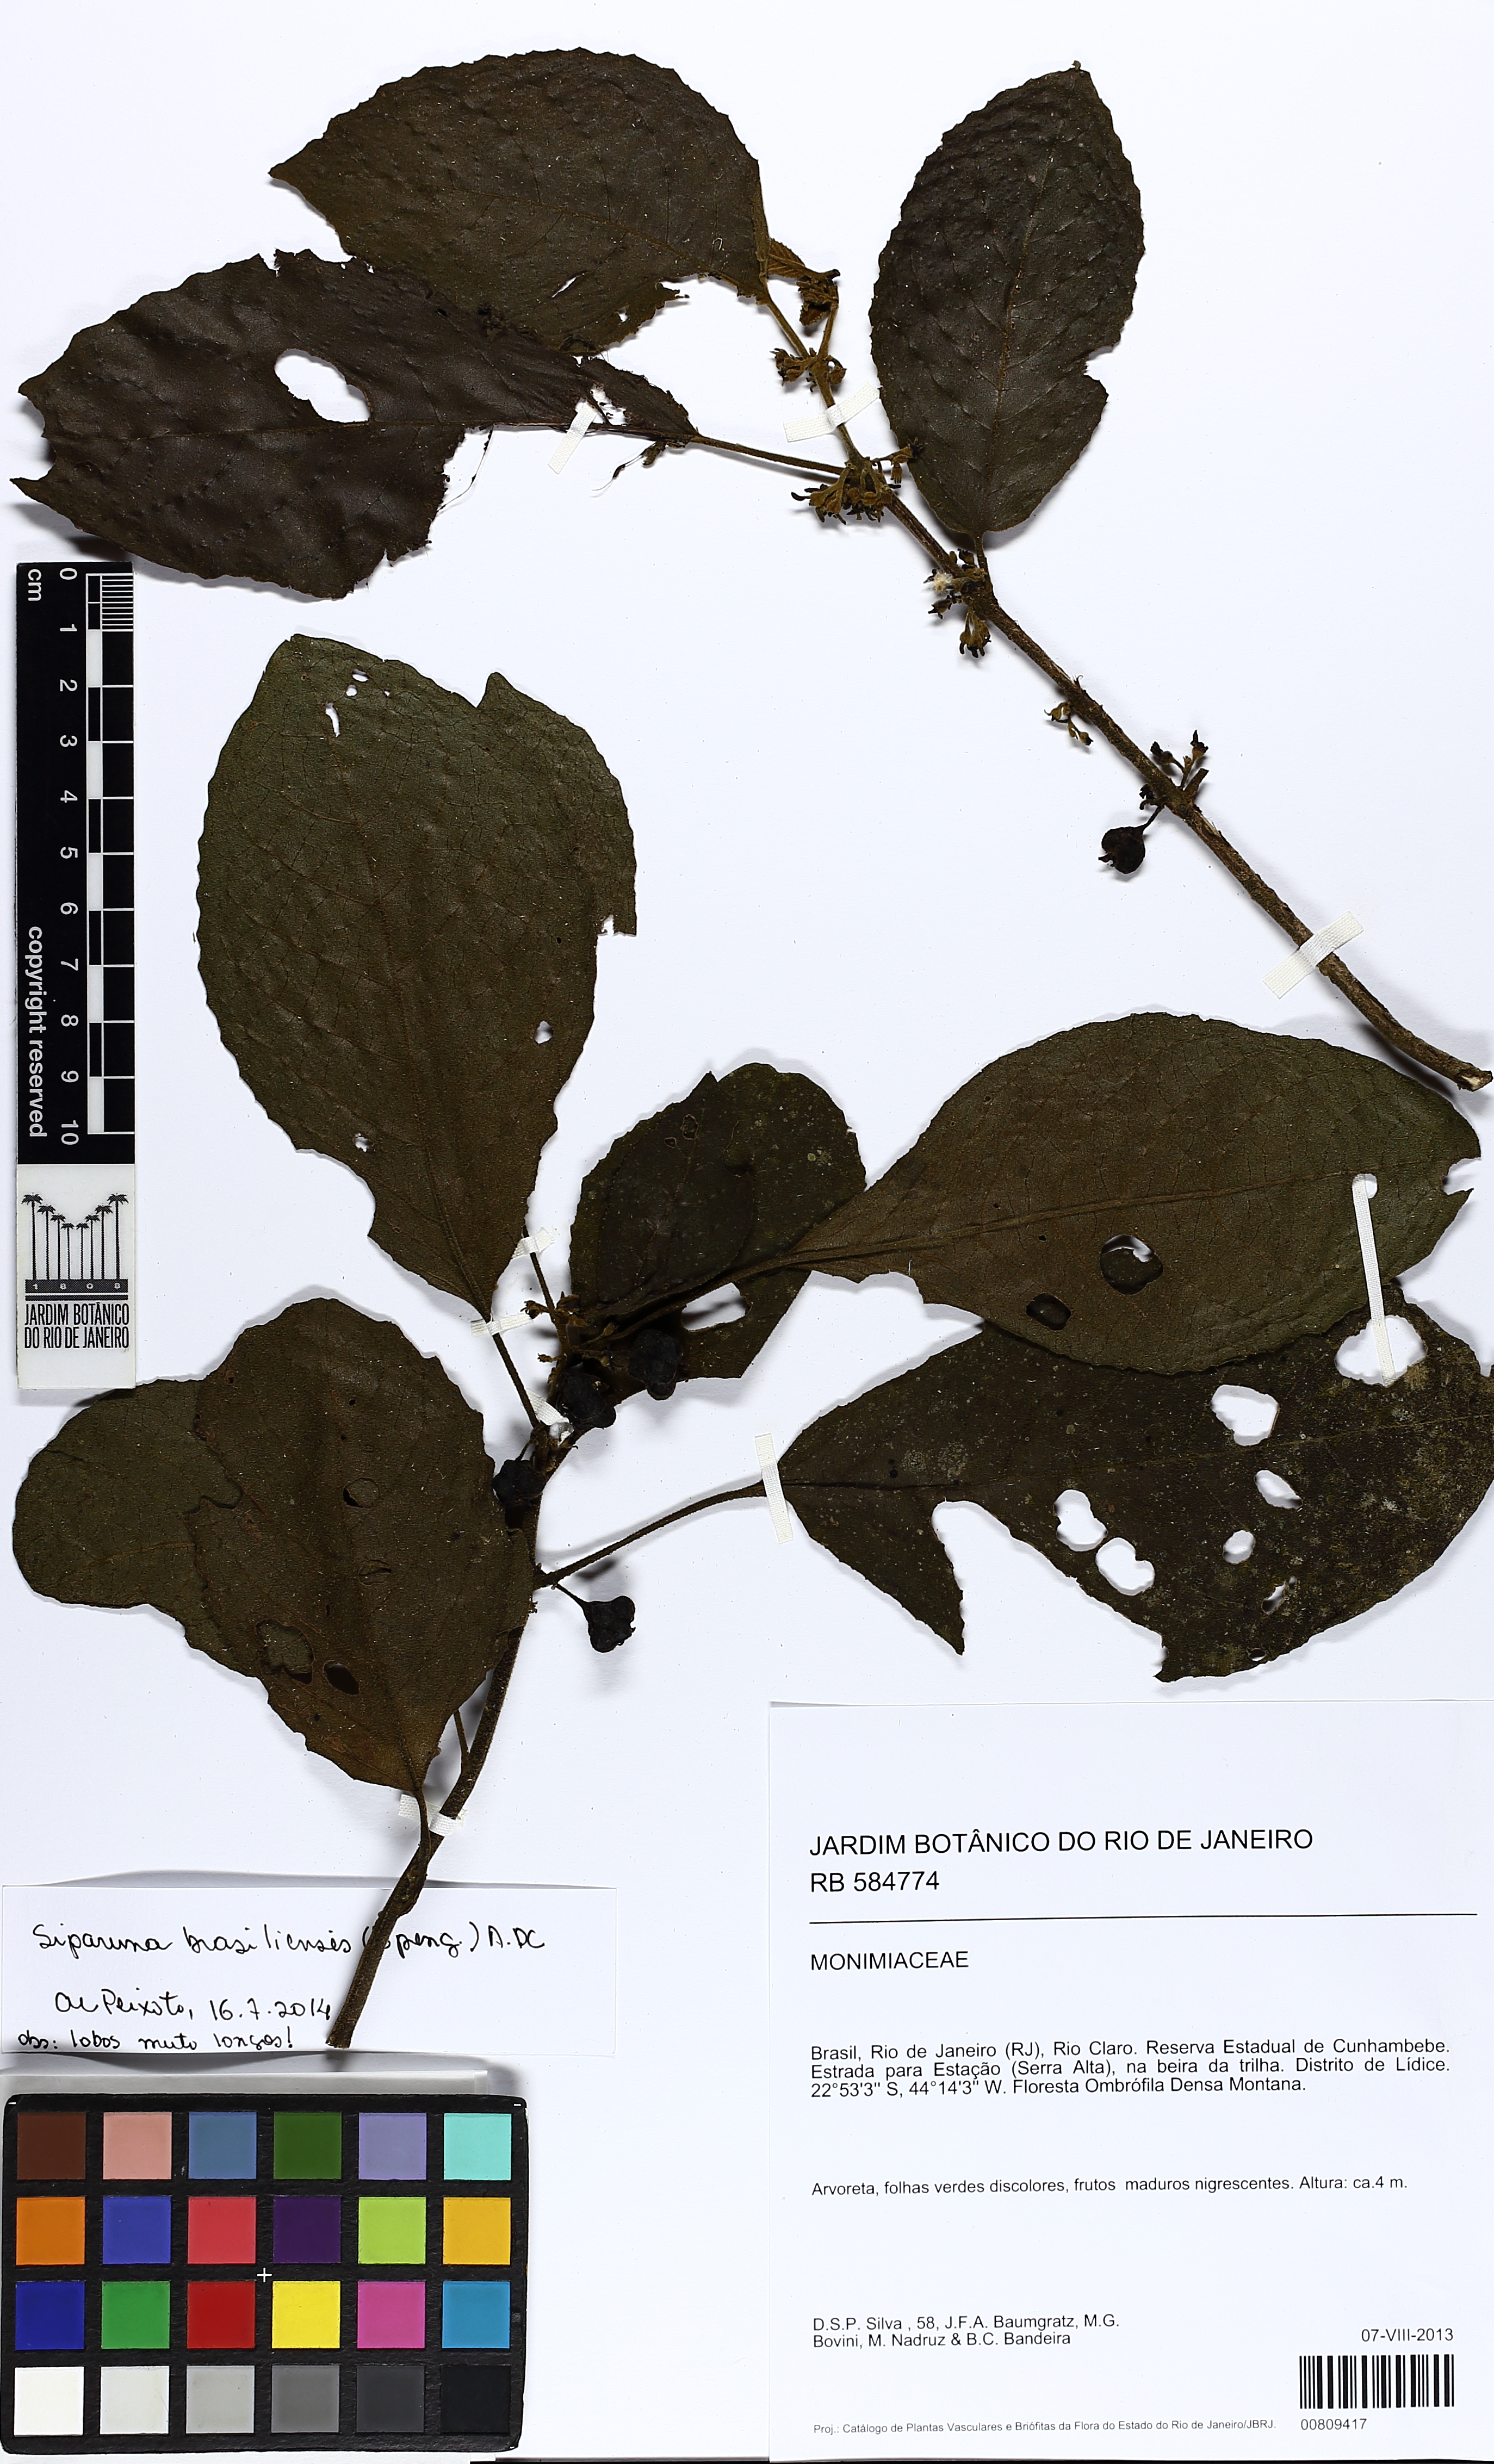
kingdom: Plantae
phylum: Tracheophyta
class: Magnoliopsida
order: Laurales
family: Siparunaceae
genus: Siparuna
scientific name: Siparuna brasiliensis
